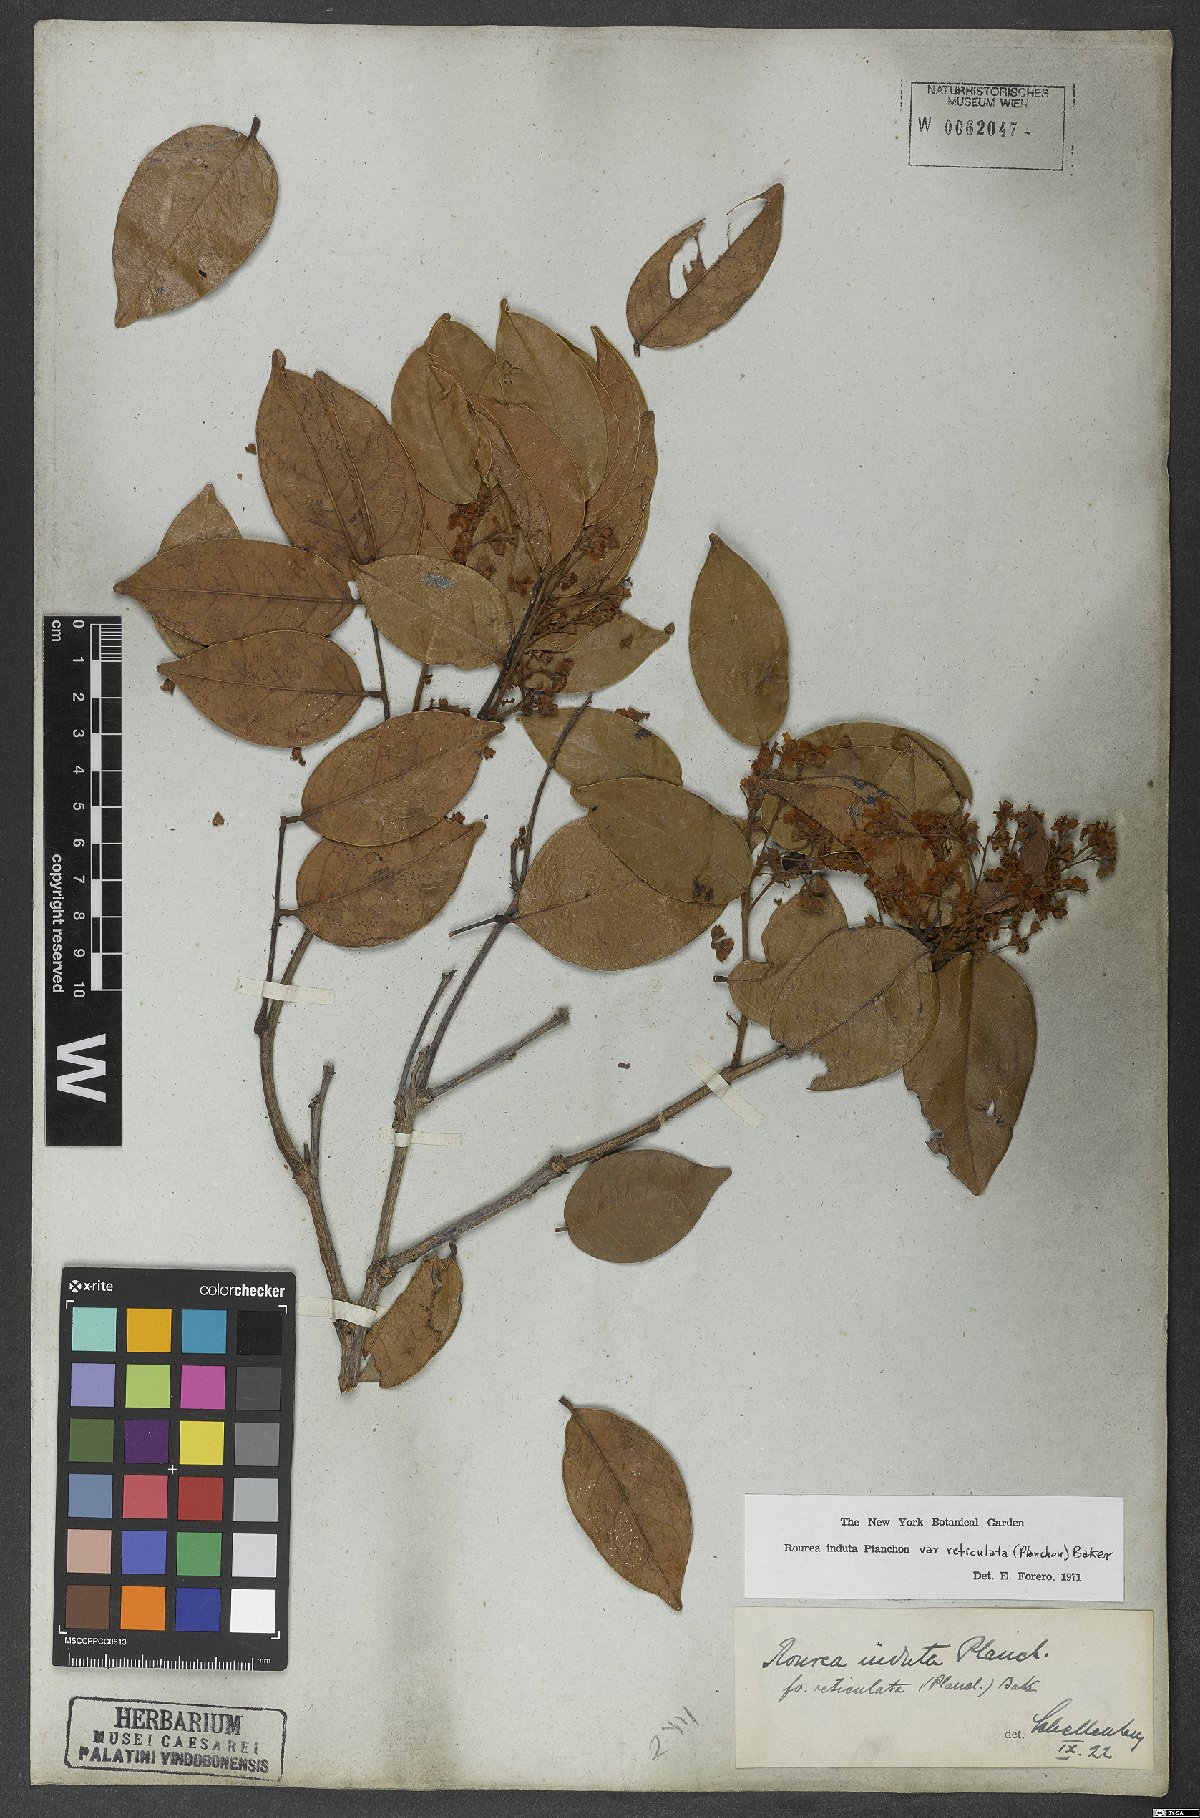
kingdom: Plantae
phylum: Tracheophyta
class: Magnoliopsida
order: Oxalidales
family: Connaraceae
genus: Rourea
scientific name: Rourea induta
